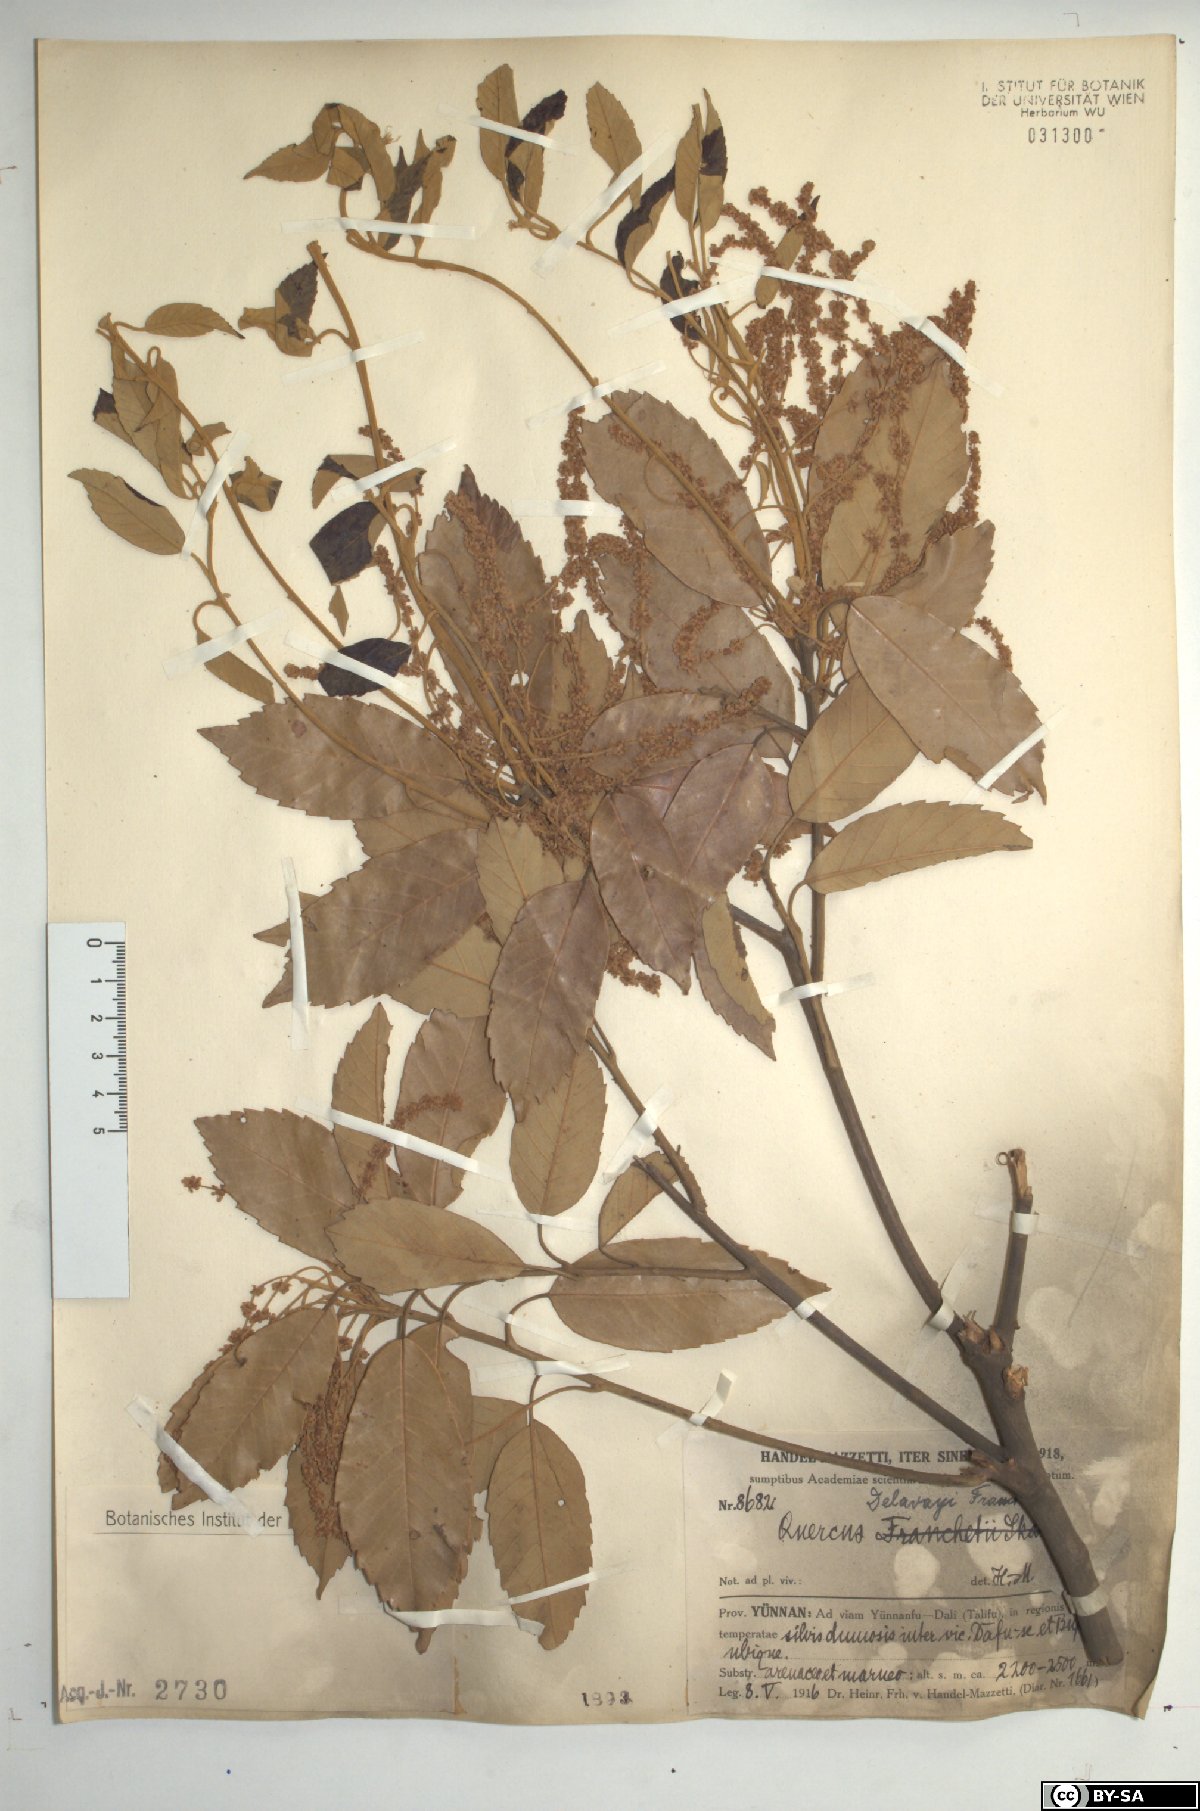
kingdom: Plantae
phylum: Tracheophyta
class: Magnoliopsida
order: Fagales
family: Fagaceae
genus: Quercus
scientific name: Quercus delavayi
